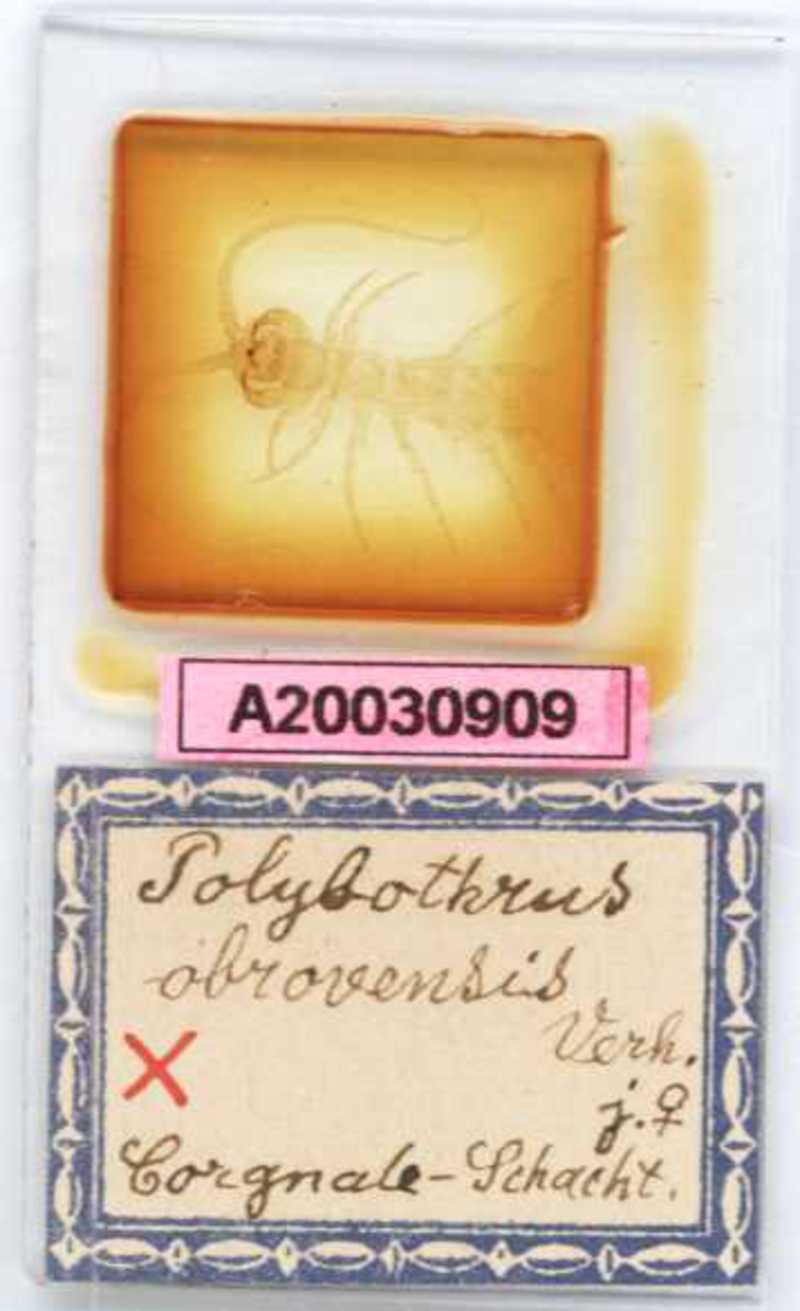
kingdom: Animalia
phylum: Arthropoda
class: Chilopoda
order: Lithobiomorpha
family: Lithobiidae
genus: Polybothrus
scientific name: Polybothrus obrovensis
